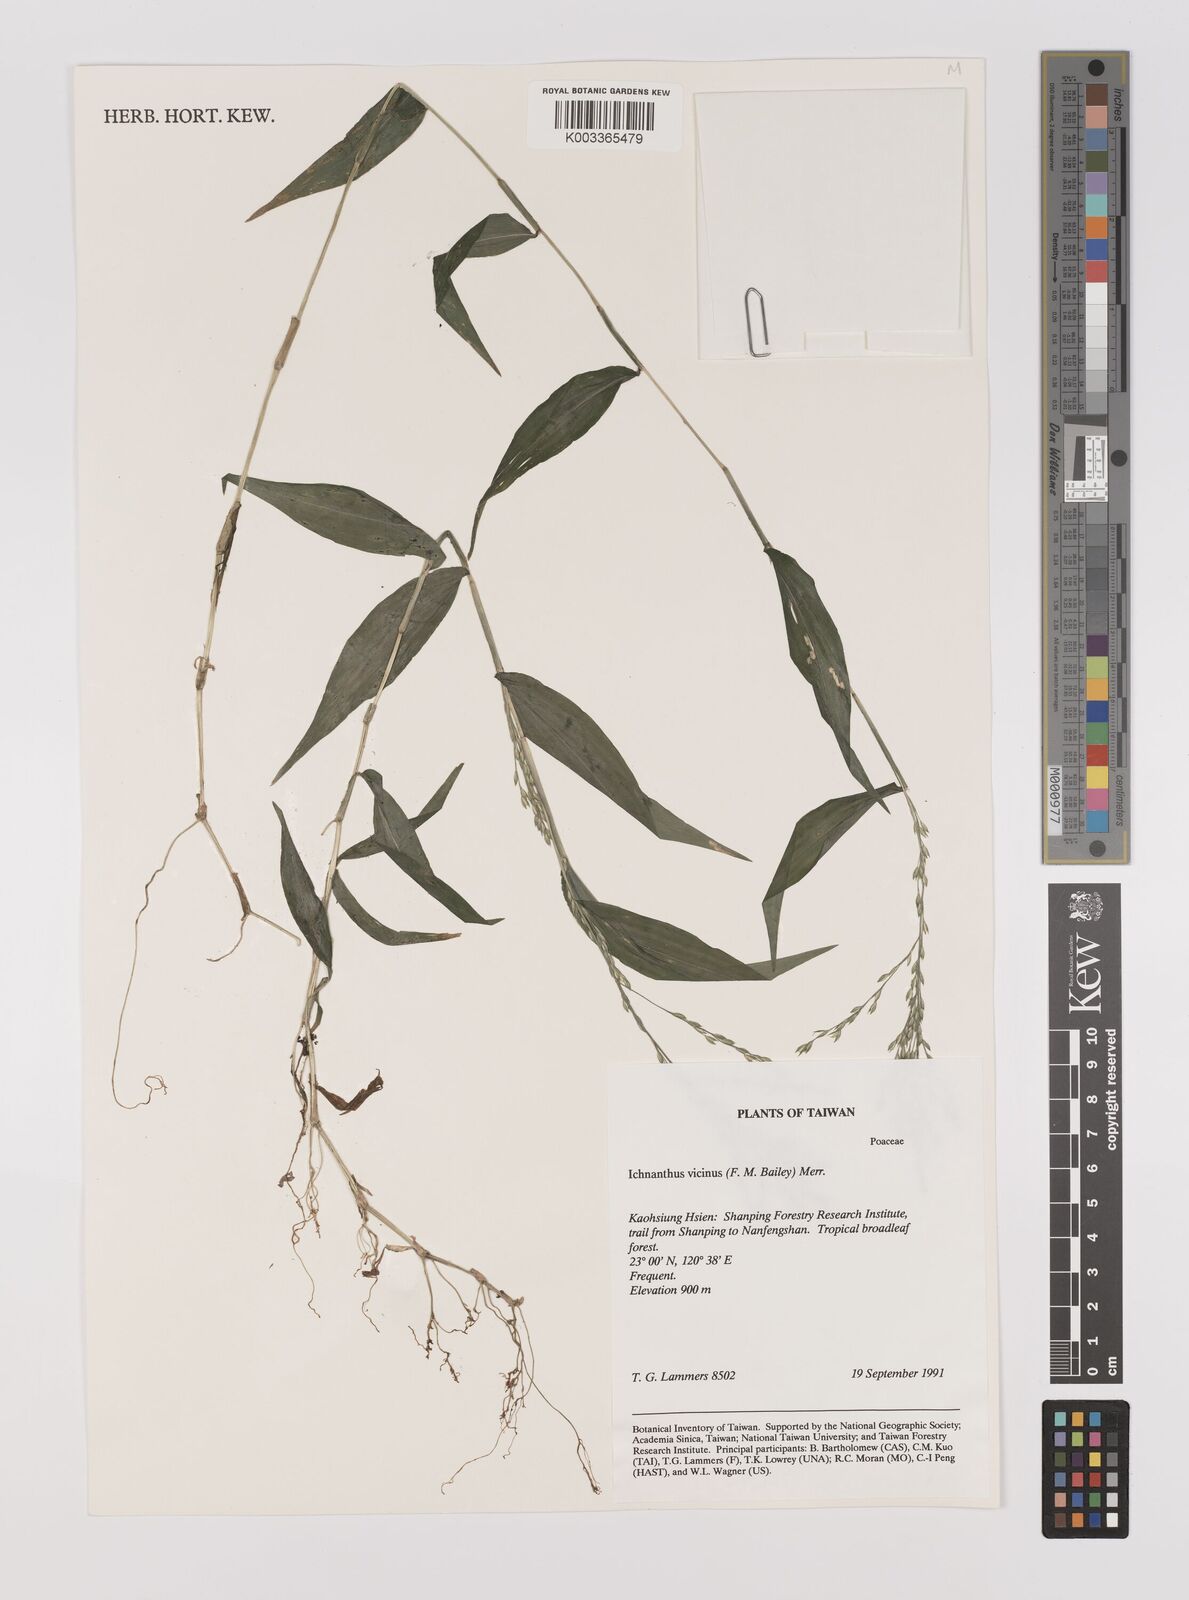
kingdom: Plantae
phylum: Tracheophyta
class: Liliopsida
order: Poales
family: Poaceae
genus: Ichnanthus
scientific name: Ichnanthus pallens
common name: Water grass
